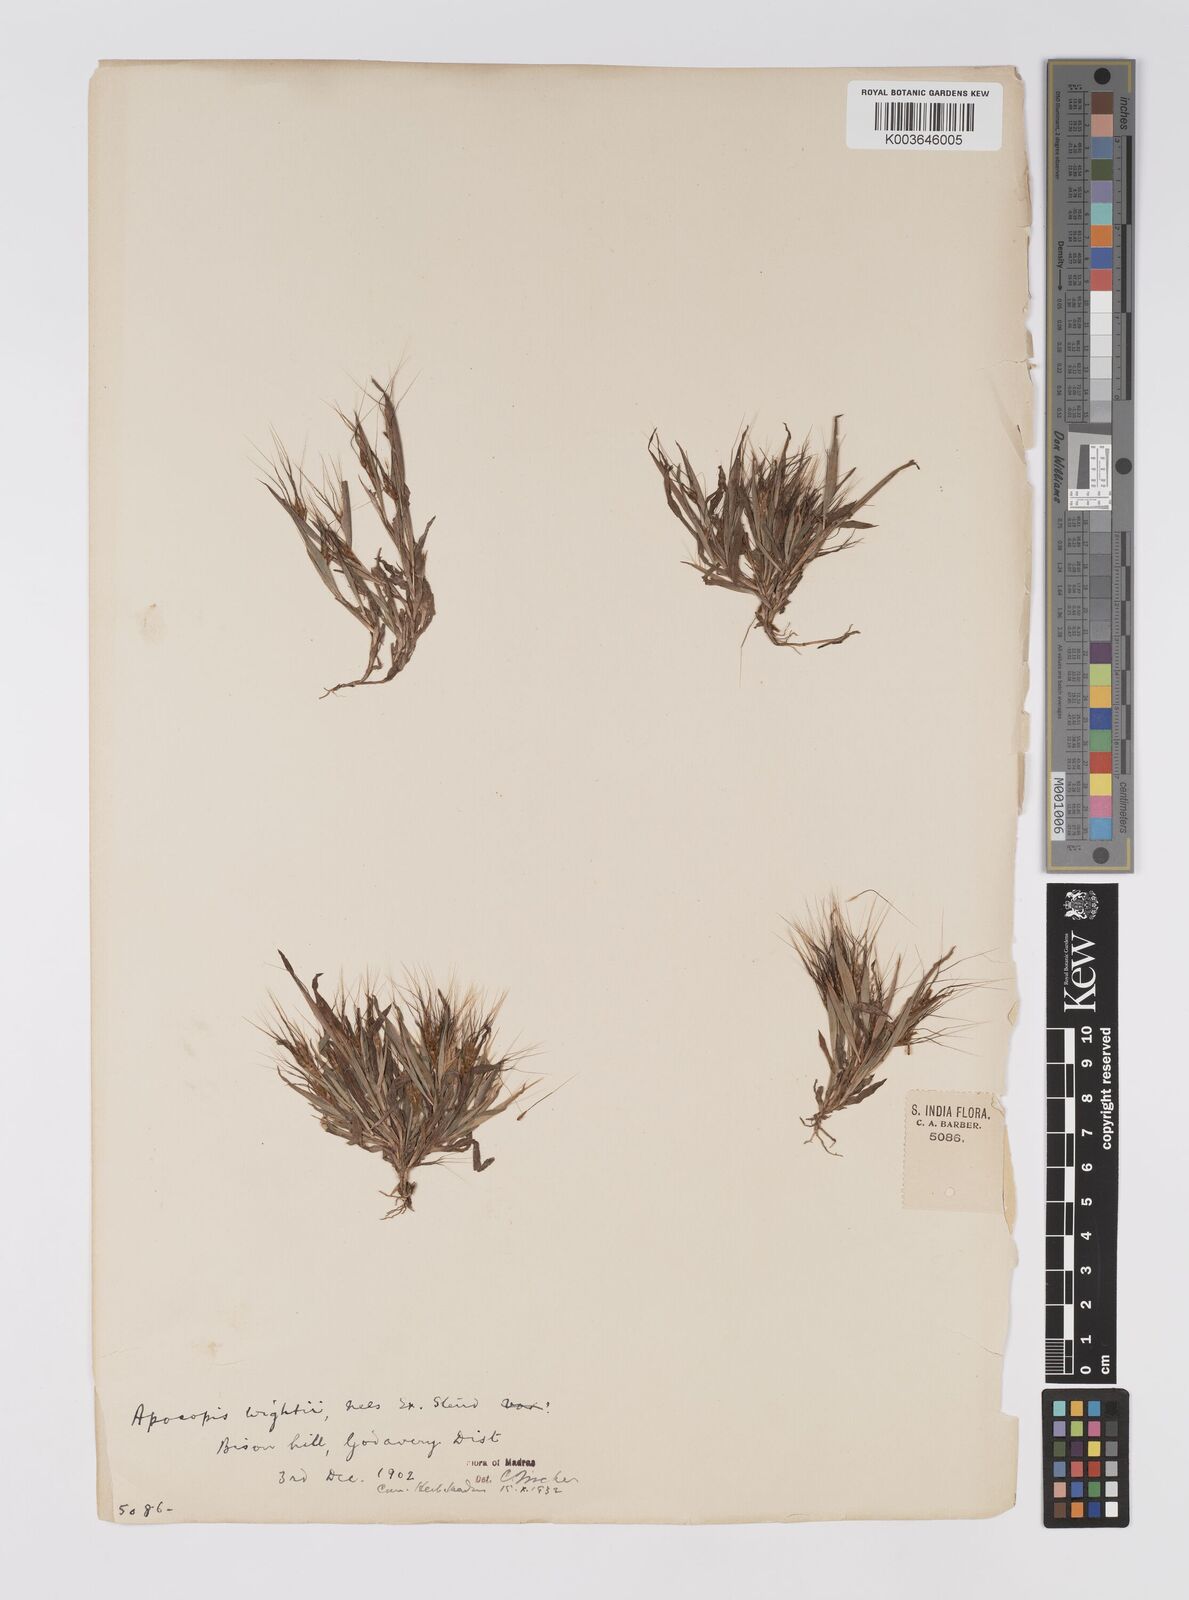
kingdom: Plantae
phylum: Tracheophyta
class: Liliopsida
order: Poales
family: Poaceae
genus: Apocopis
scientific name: Apocopis vaginatus
